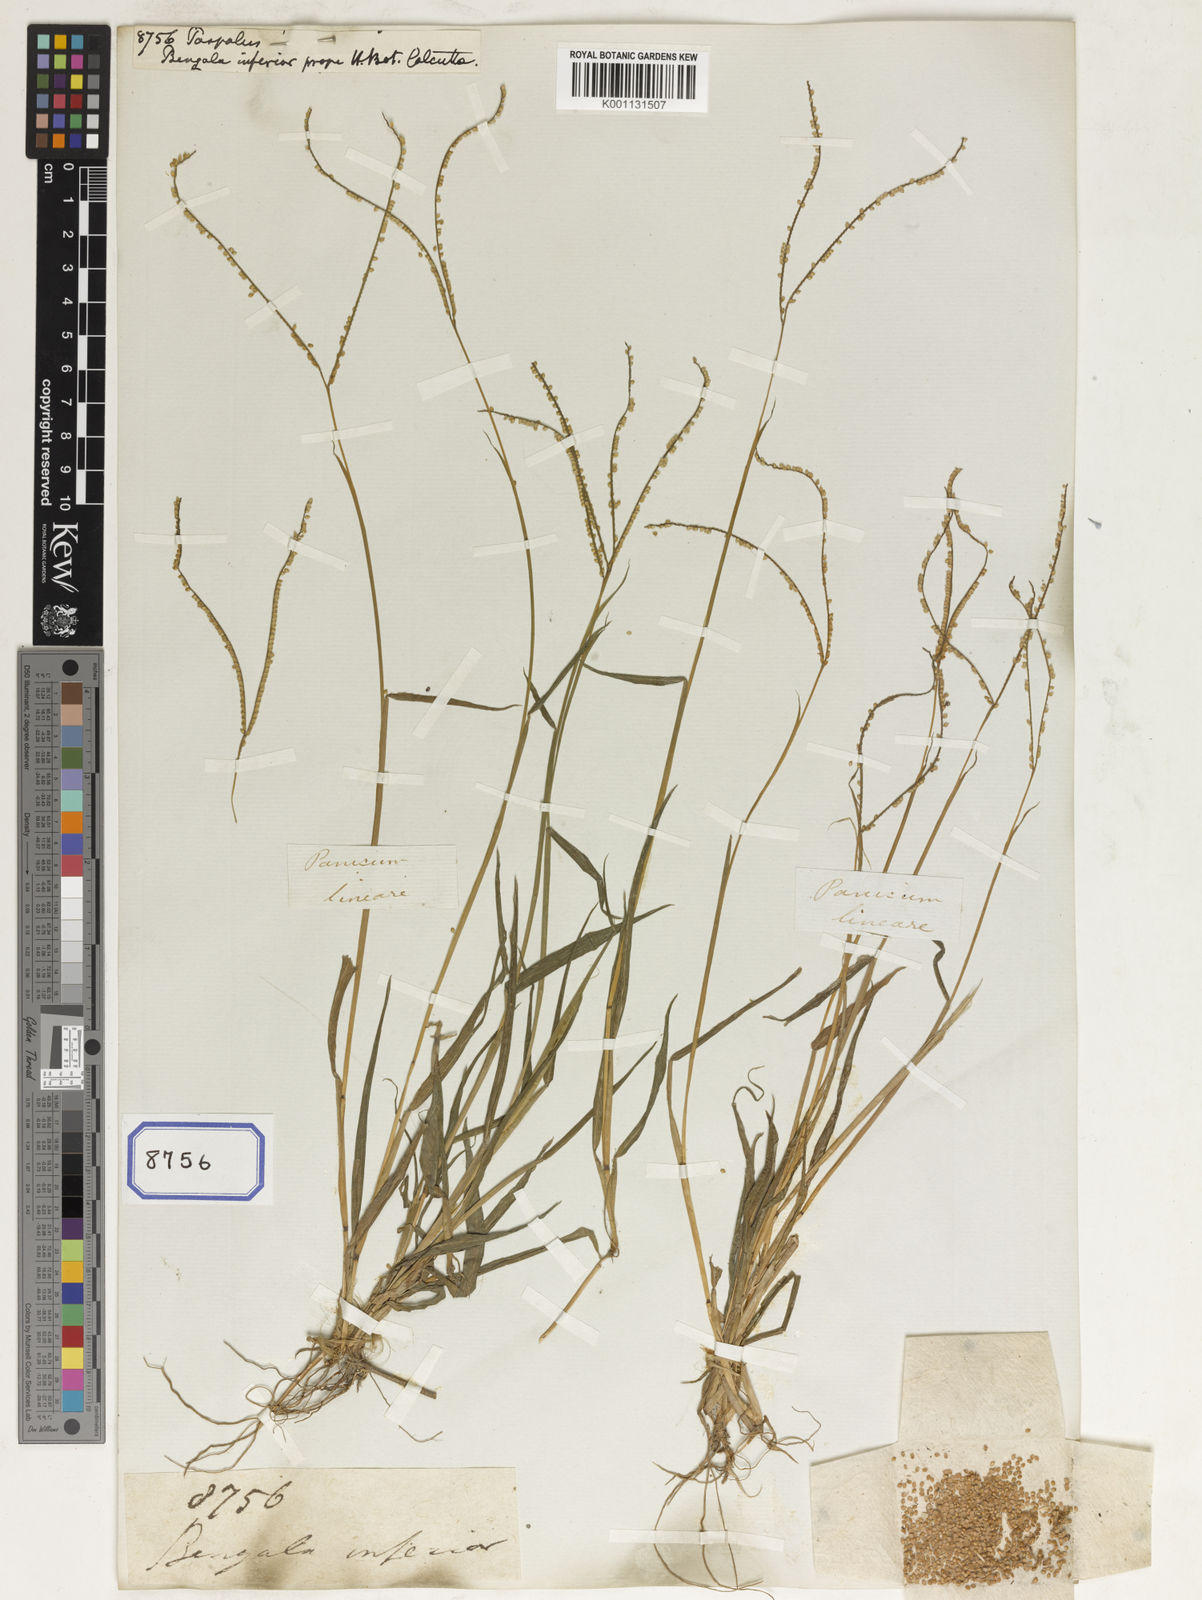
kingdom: Plantae
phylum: Tracheophyta
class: Liliopsida
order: Poales
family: Poaceae
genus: Paspalum
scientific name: Paspalum
